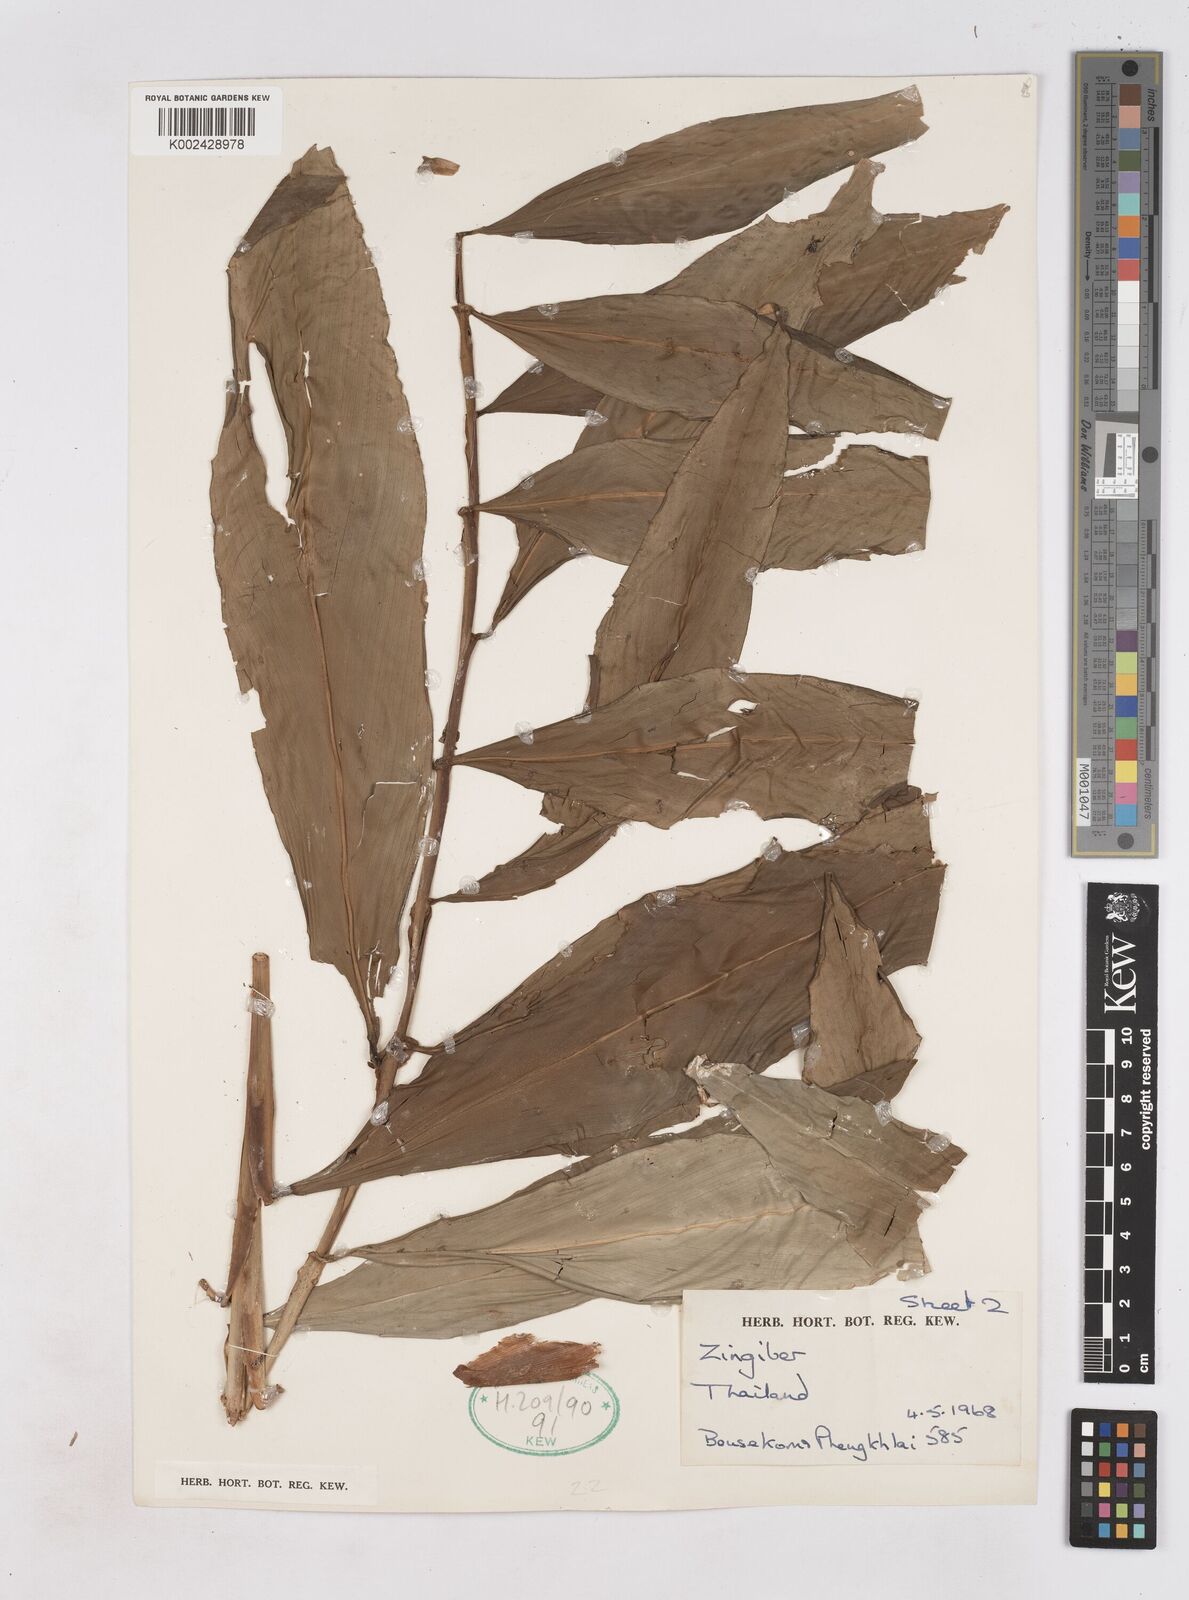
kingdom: Plantae
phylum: Tracheophyta
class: Liliopsida
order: Zingiberales
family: Zingiberaceae
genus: Zingiber
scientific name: Zingiber
